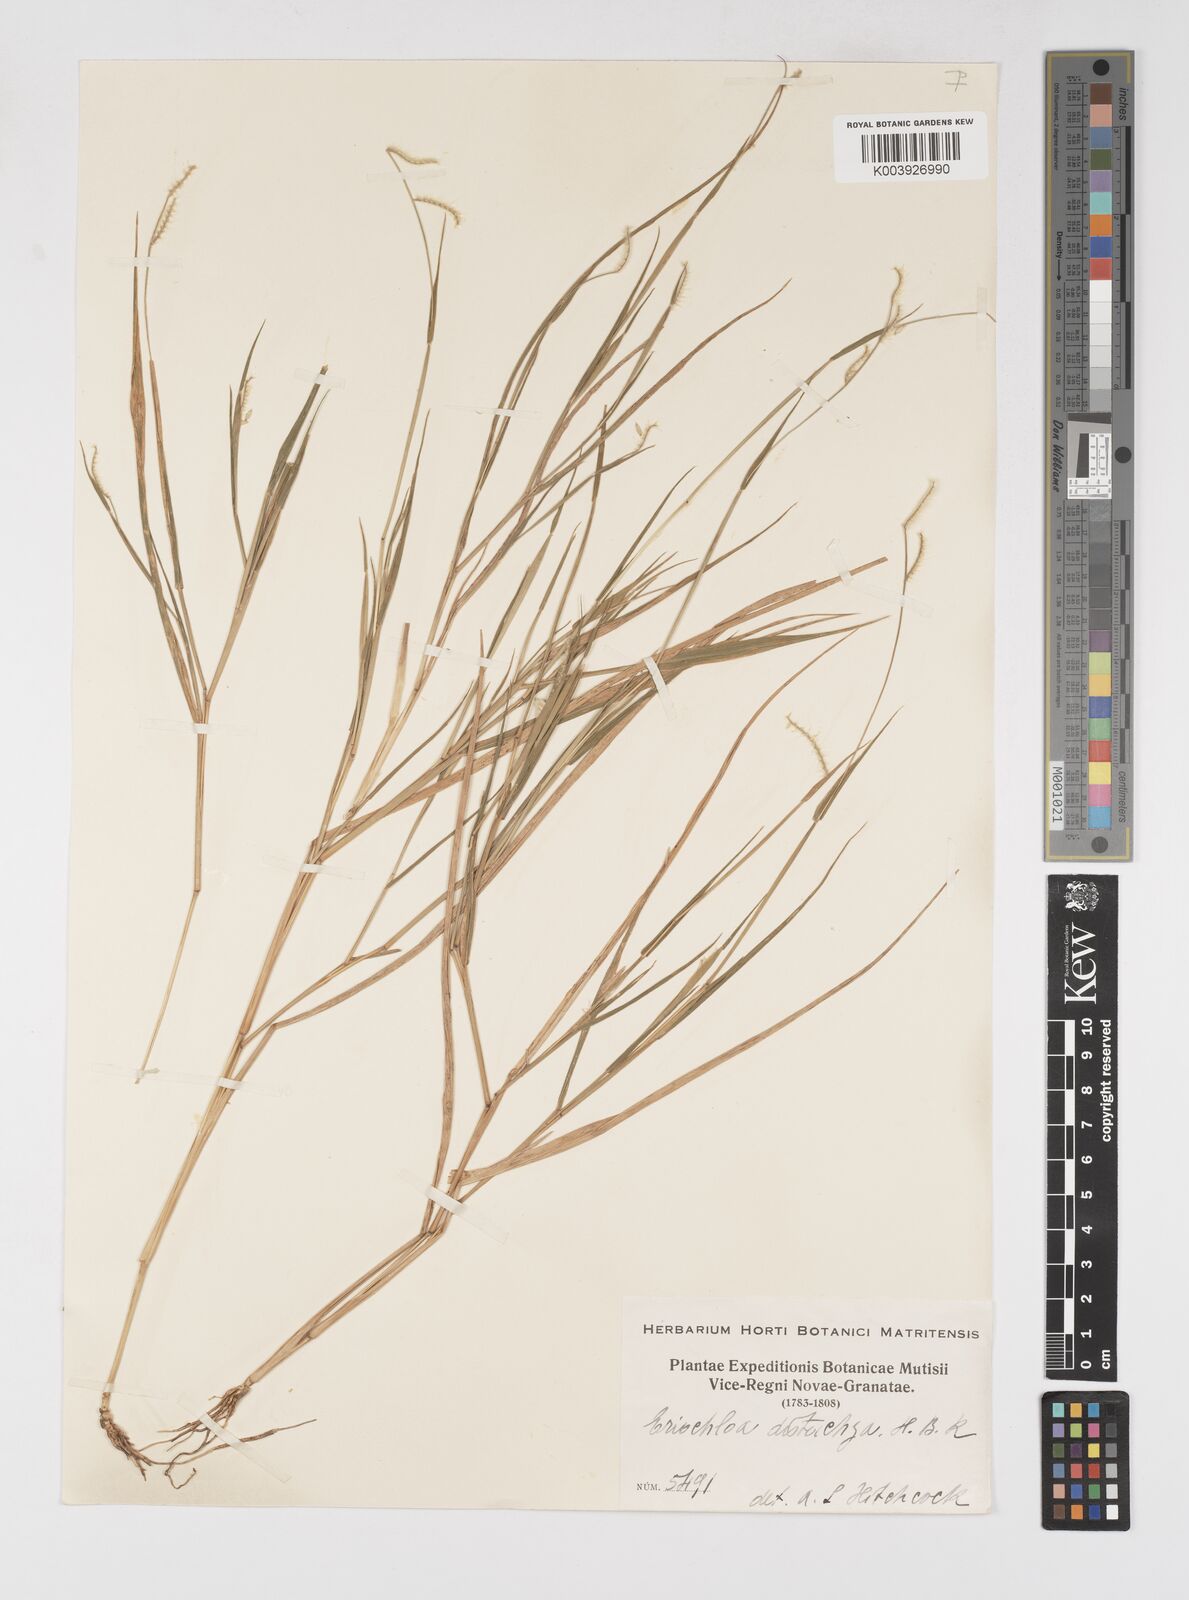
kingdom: Plantae
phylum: Tracheophyta
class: Liliopsida
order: Poales
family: Poaceae
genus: Eriochloa
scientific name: Eriochloa distachya
